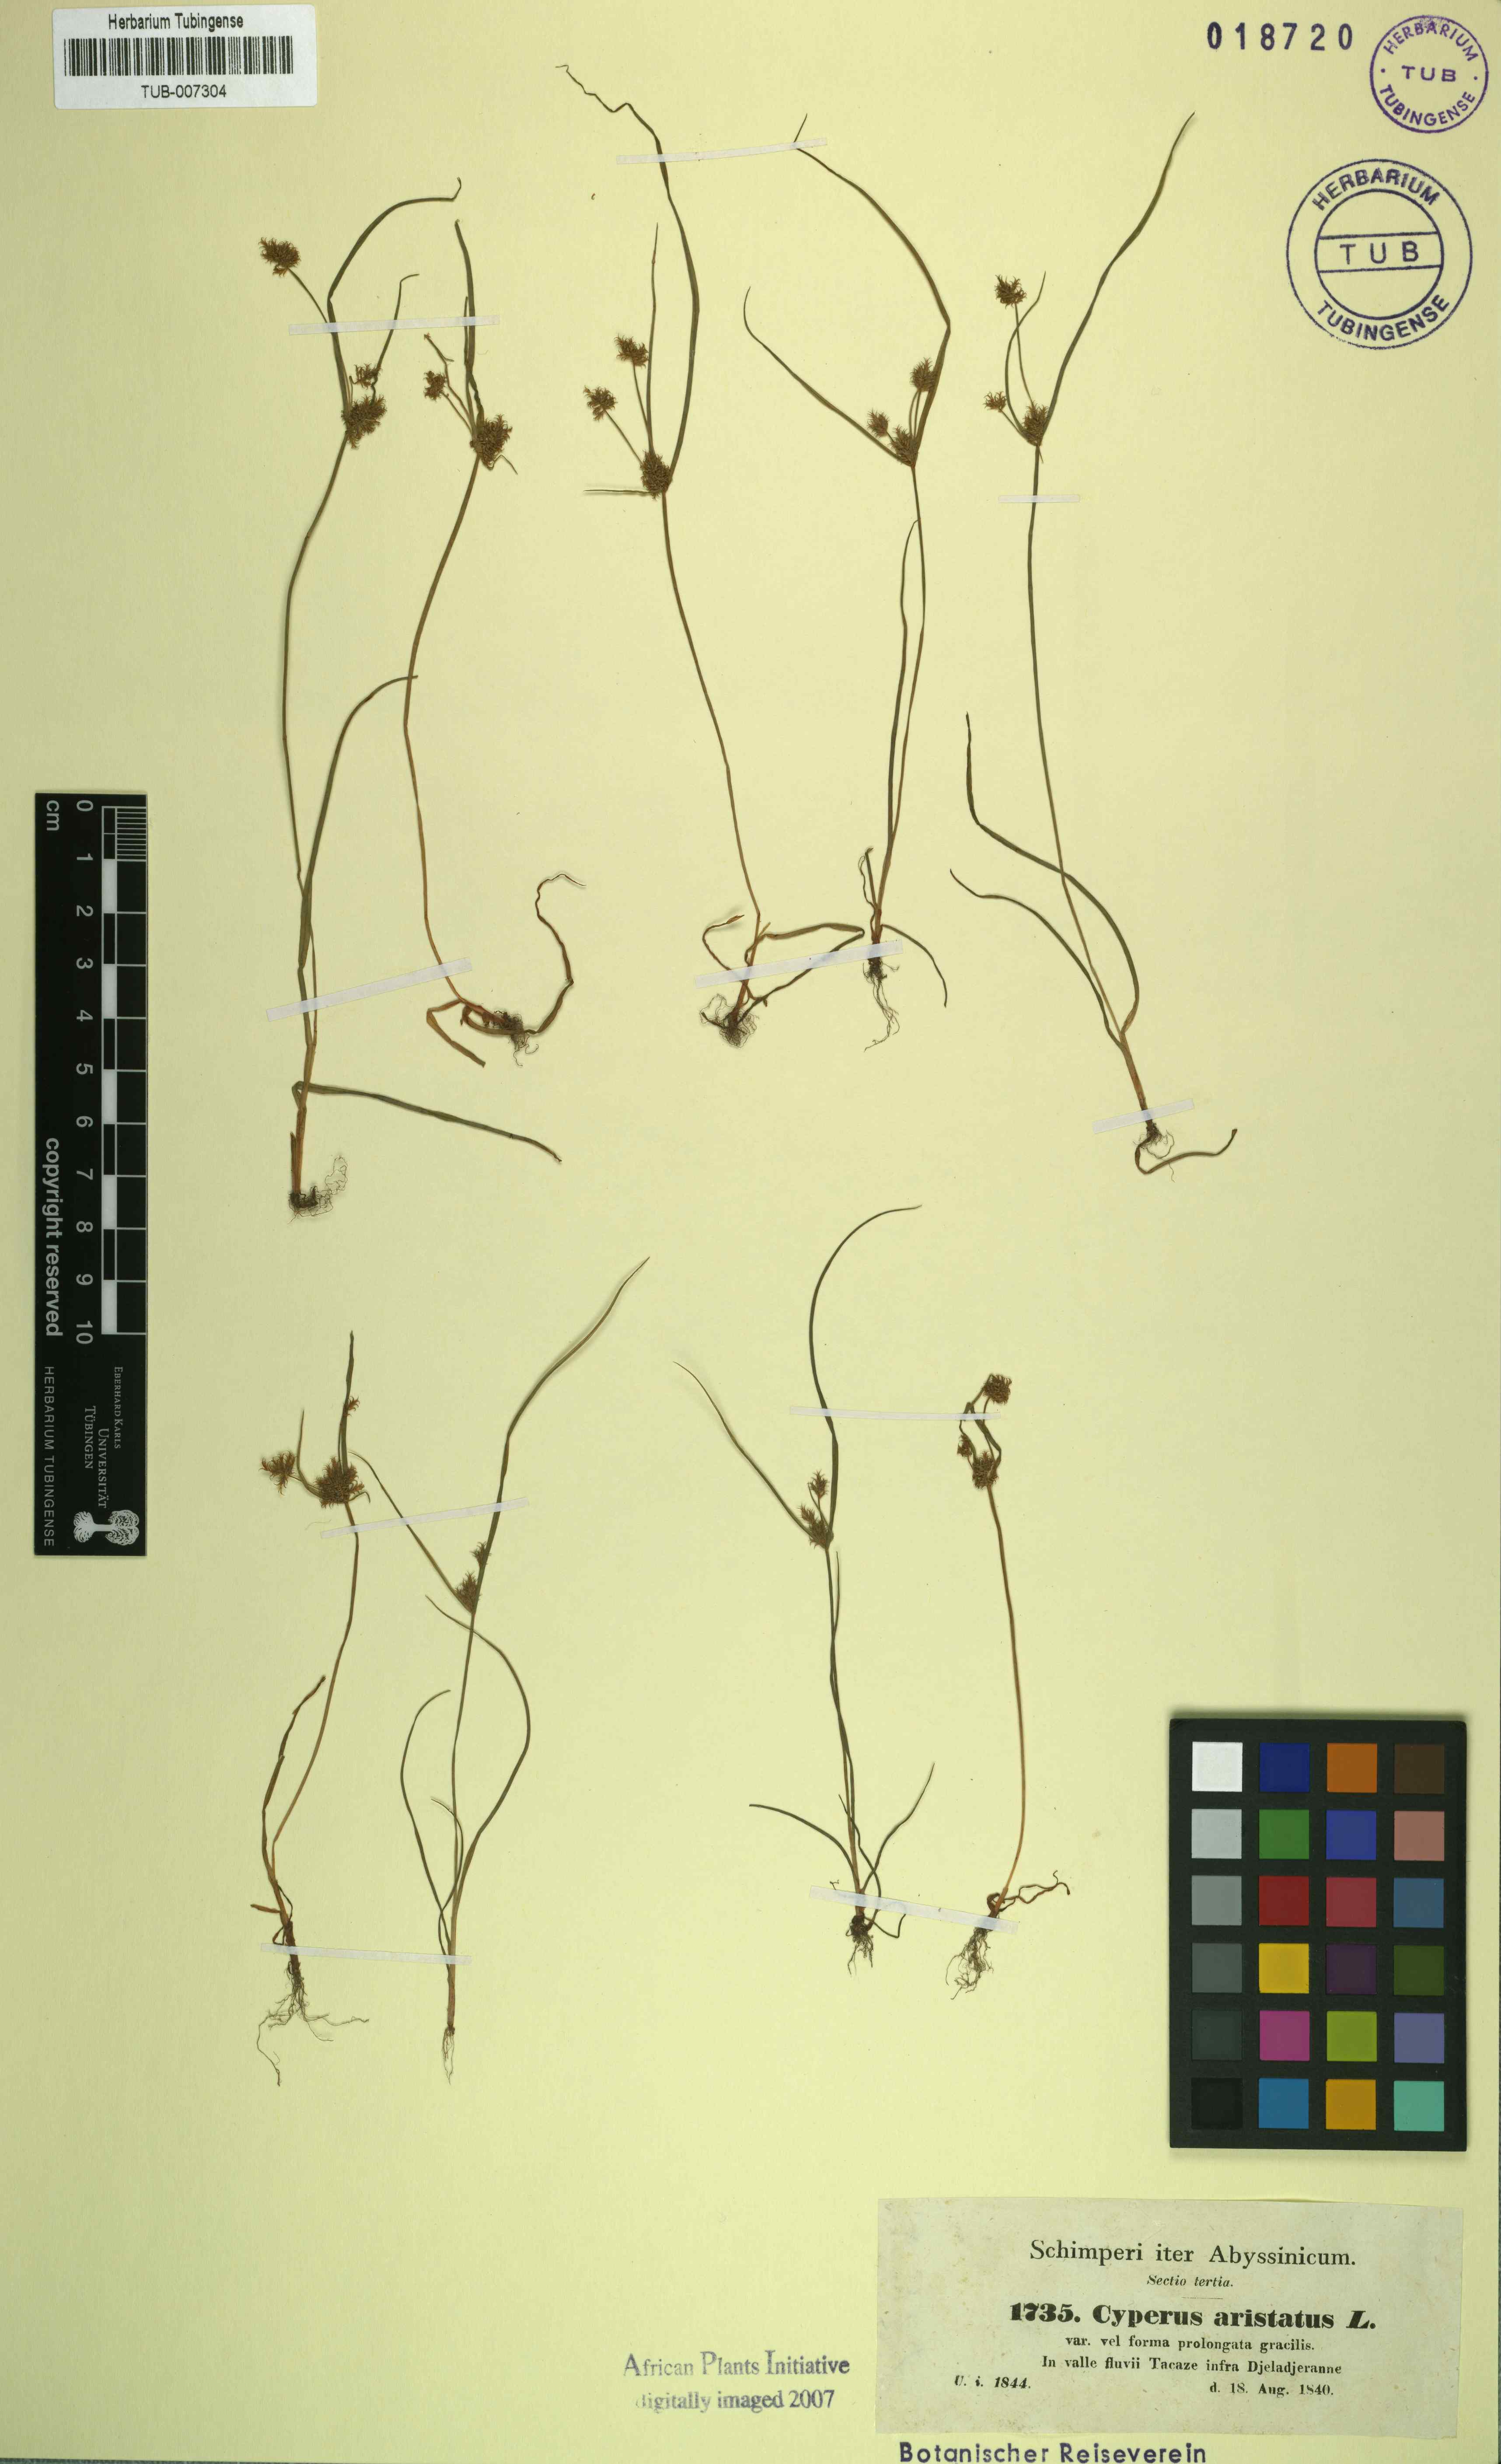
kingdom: Plantae
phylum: Tracheophyta
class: Liliopsida
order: Poales
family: Cyperaceae
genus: Cyperus
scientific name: Cyperus squarrosus
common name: Awned cyperus
